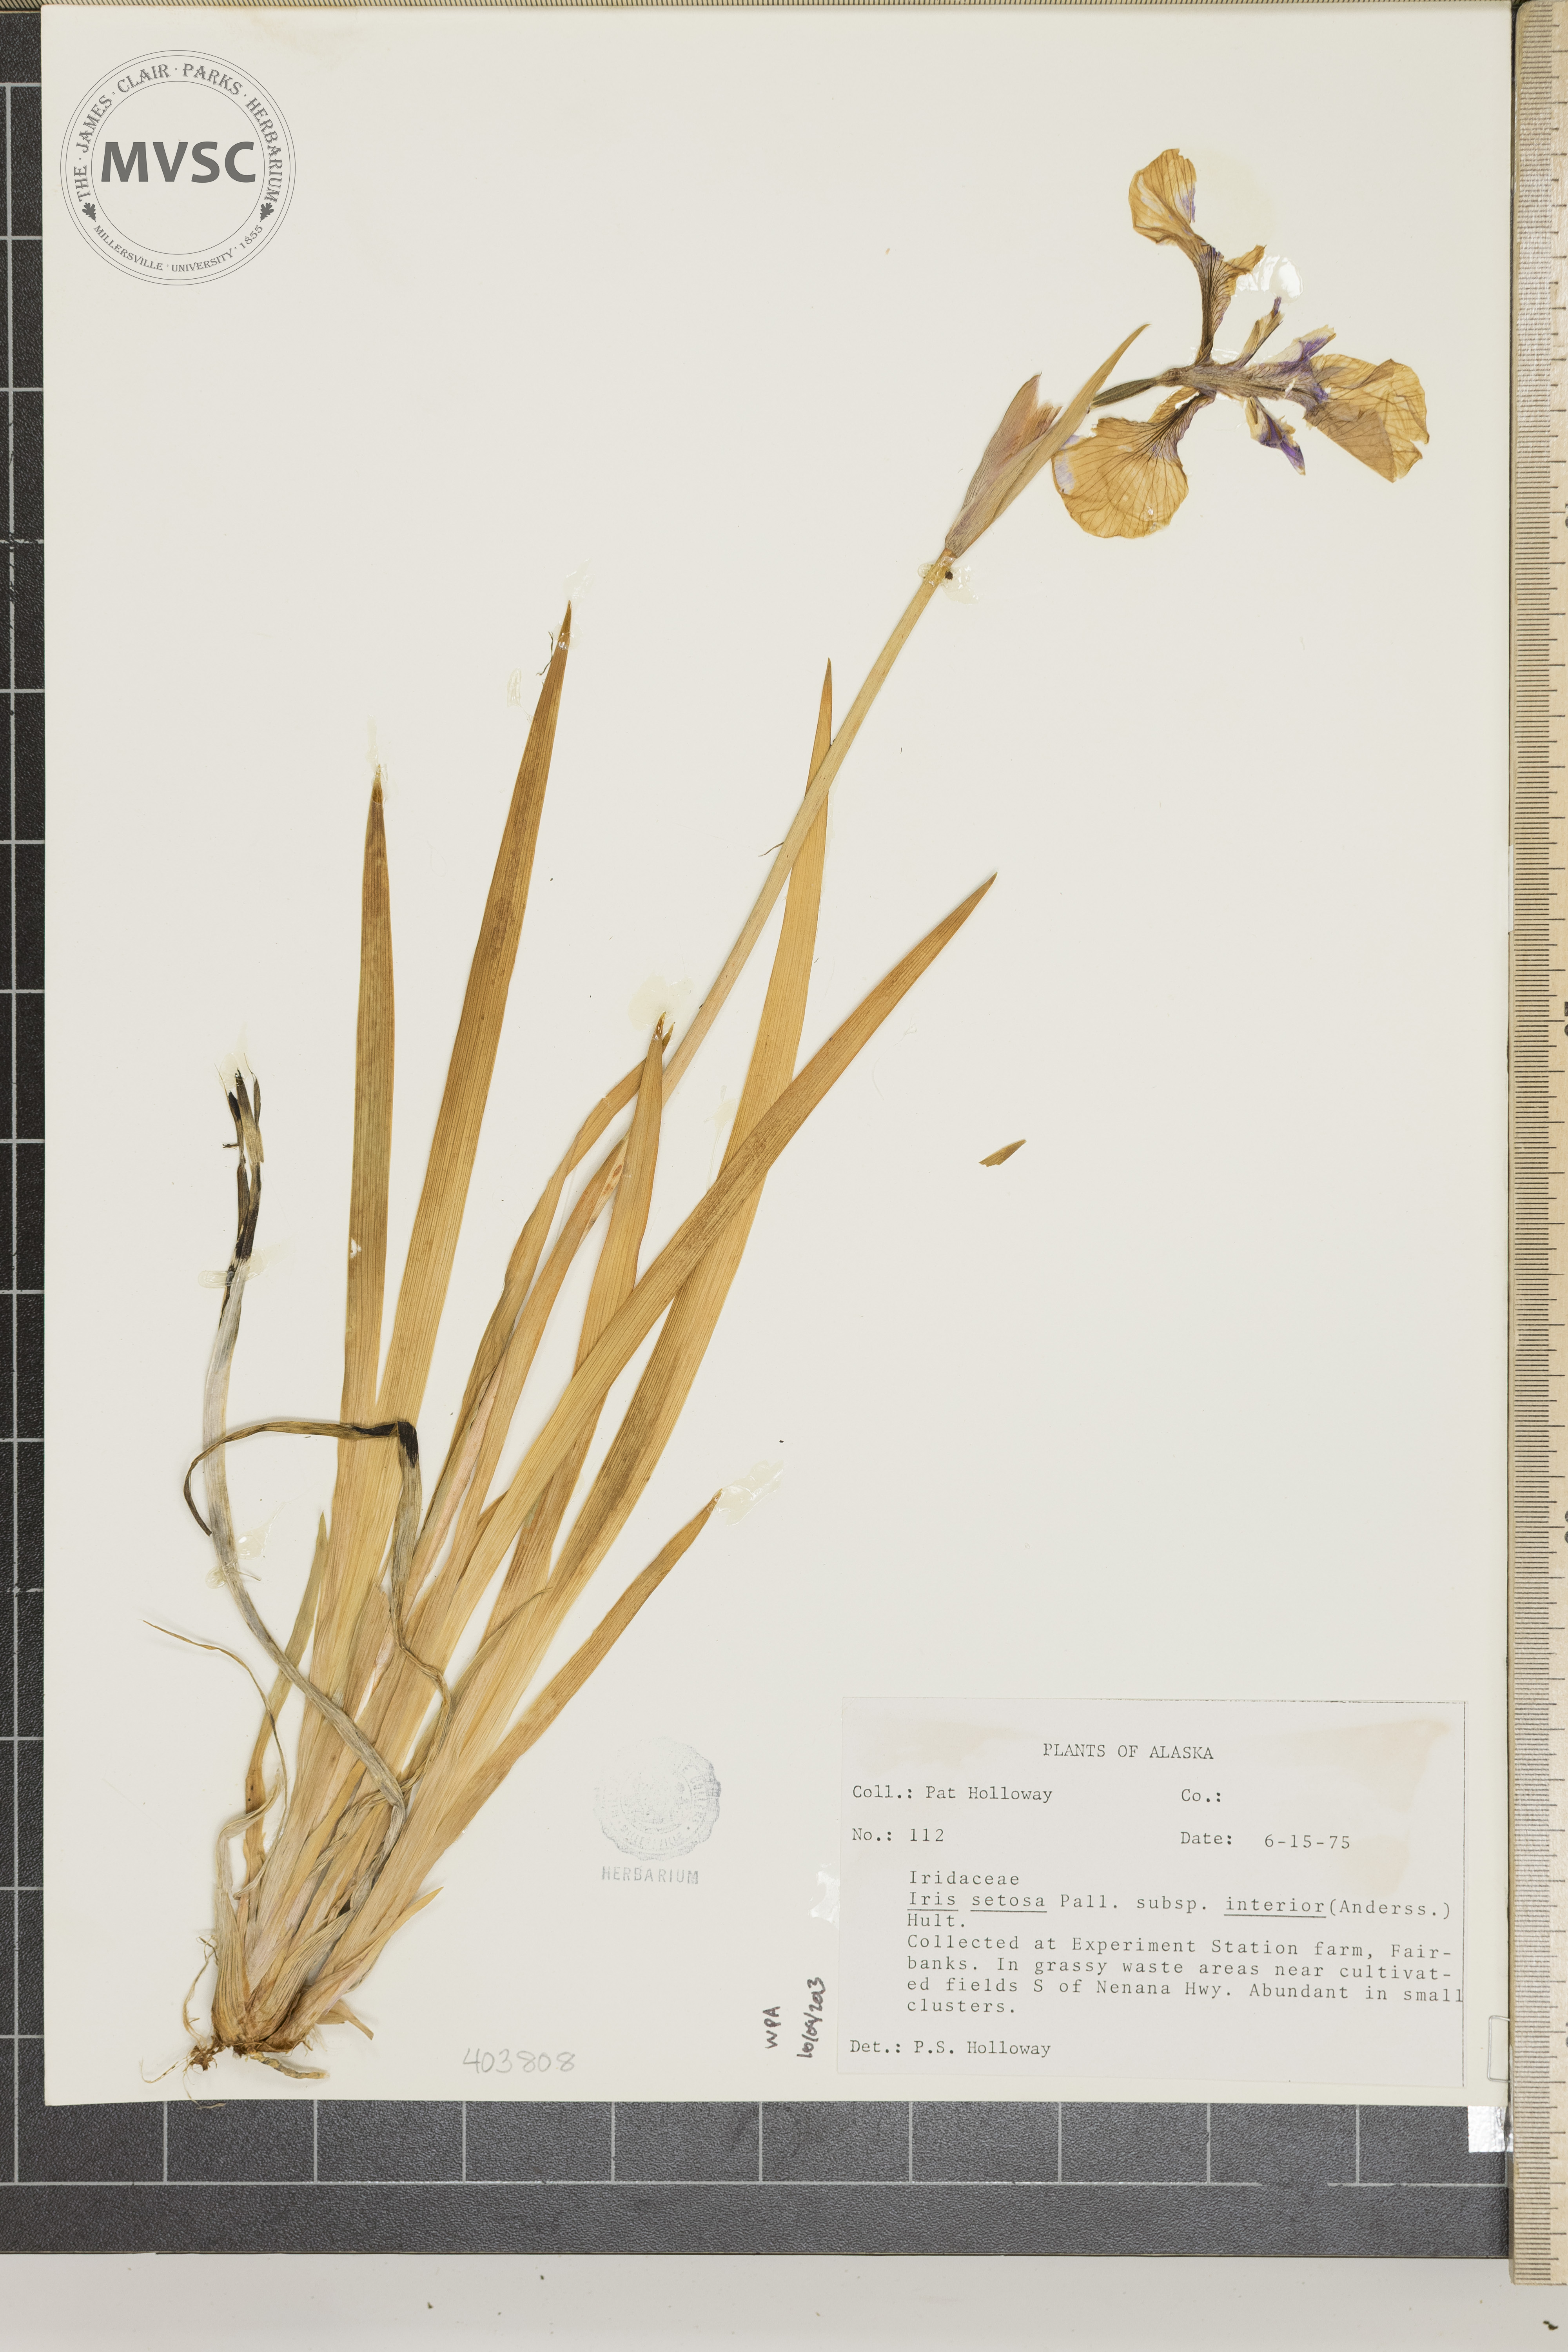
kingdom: Plantae
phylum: Tracheophyta
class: Liliopsida
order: Asparagales
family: Iridaceae
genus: Iris
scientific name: Iris setosa
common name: Arctic blue flag
